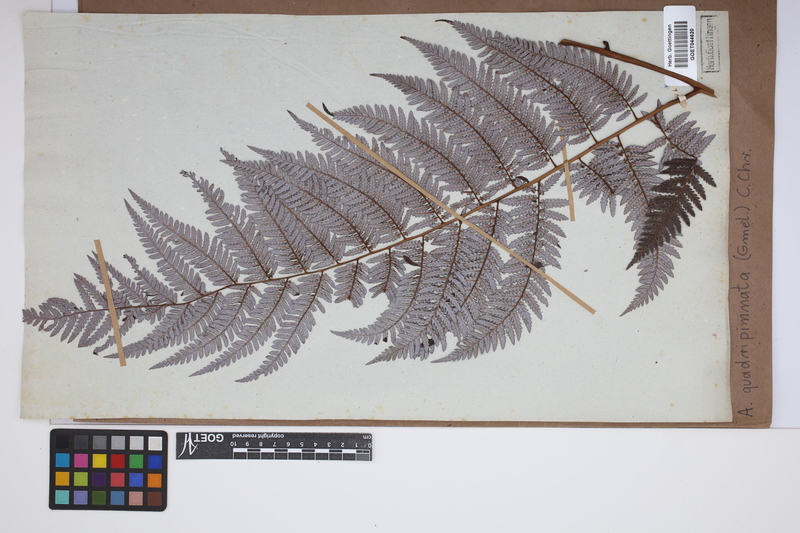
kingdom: Plantae
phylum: Tracheophyta
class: Polypodiopsida
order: Cyatheales
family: Dicksoniaceae
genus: Lophosoria
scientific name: Lophosoria quadripinnata
